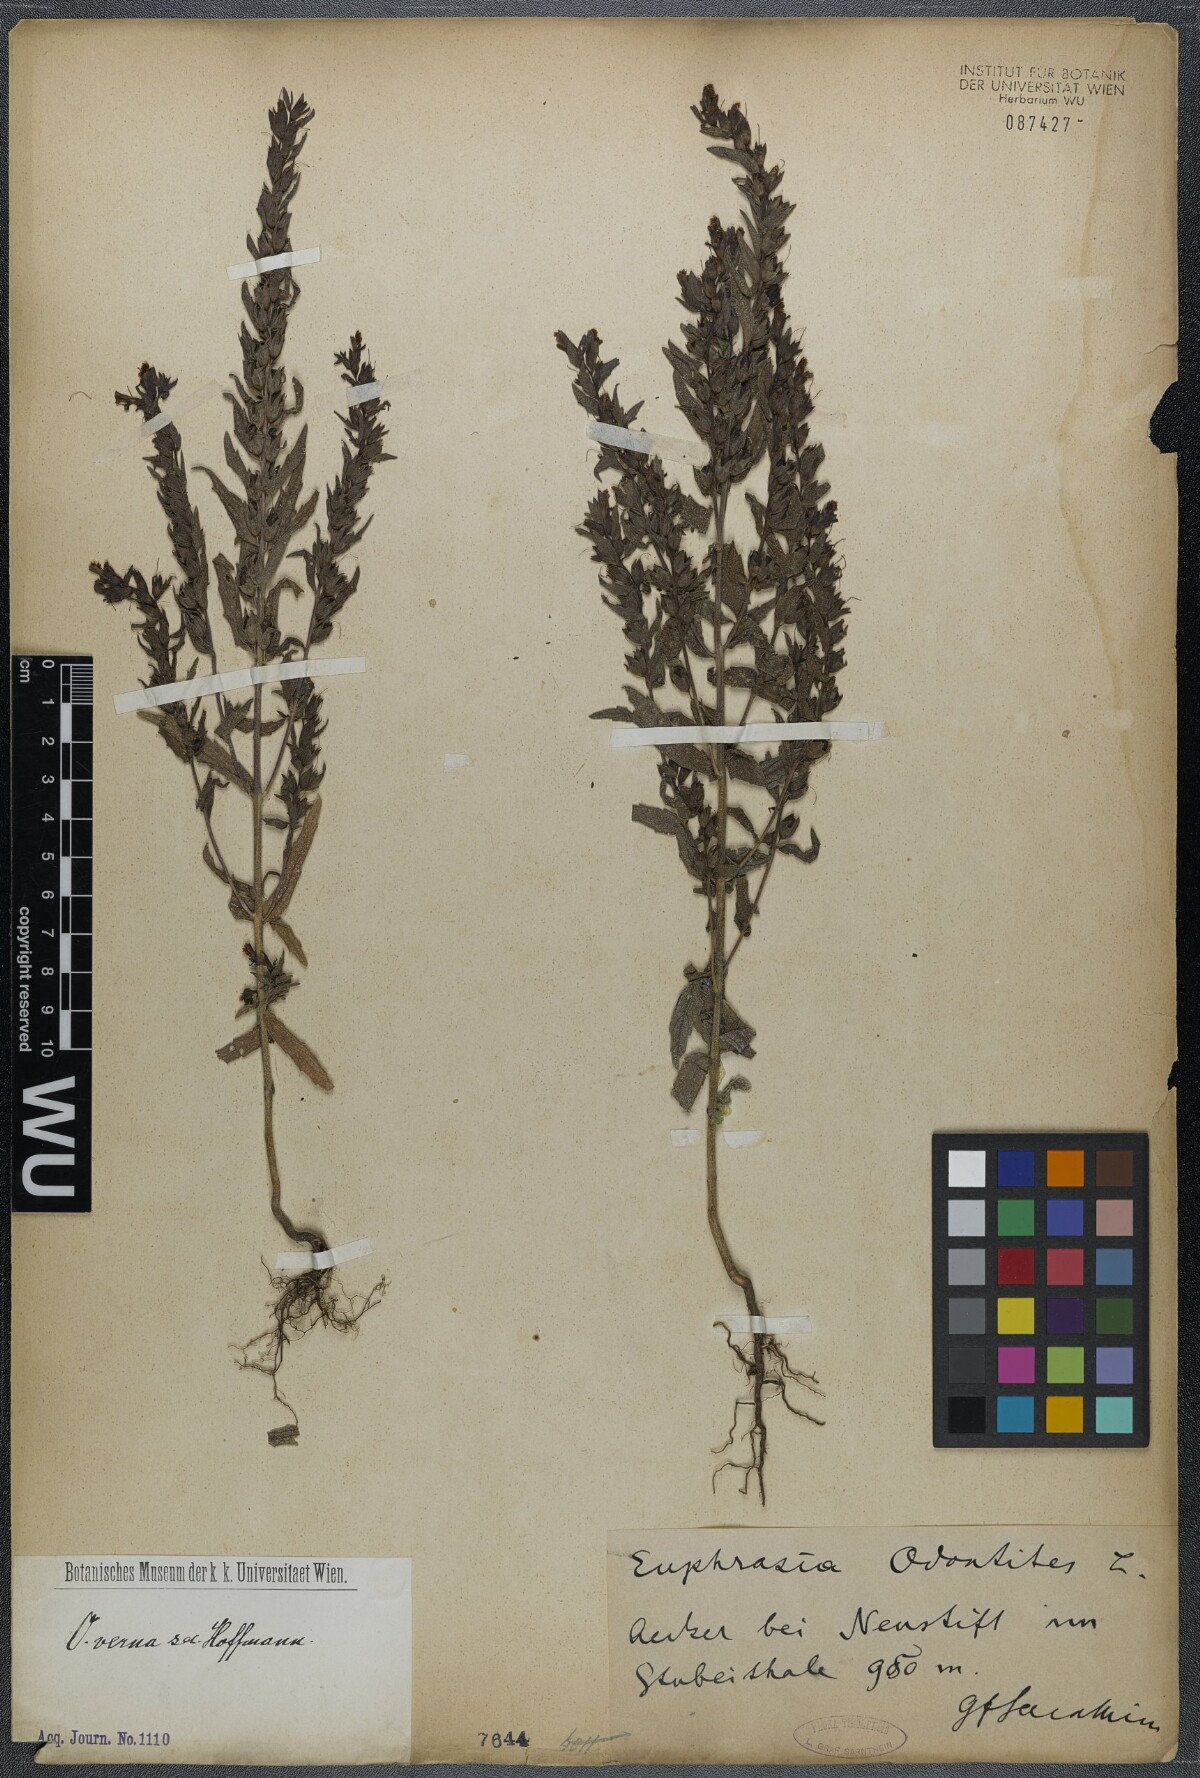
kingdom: Plantae
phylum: Tracheophyta
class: Magnoliopsida
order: Lamiales
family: Orobanchaceae
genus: Odontites
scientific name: Odontites vernus
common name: Red bartsia
